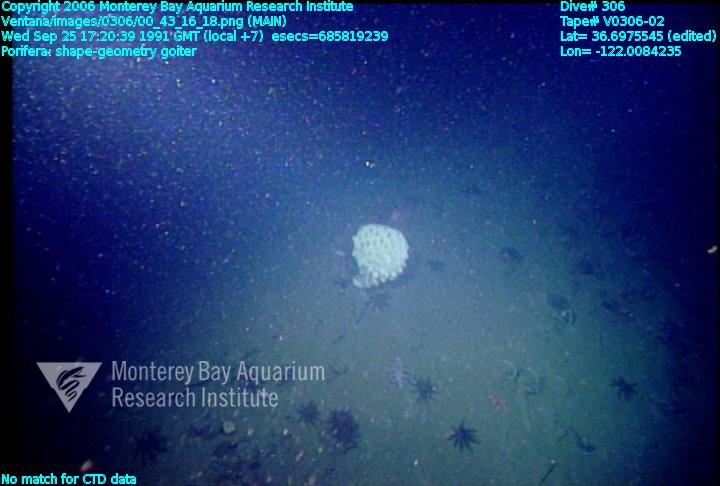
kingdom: Animalia
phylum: Porifera
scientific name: Porifera
